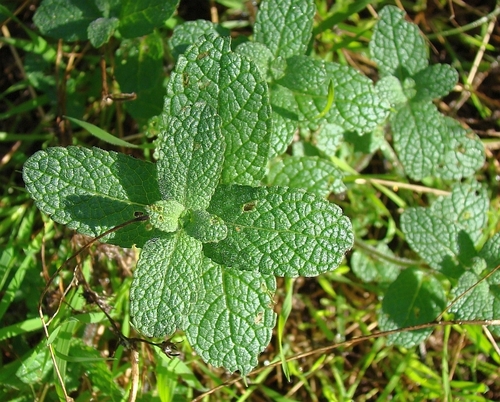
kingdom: Plantae
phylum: Tracheophyta
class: Magnoliopsida
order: Lamiales
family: Lamiaceae
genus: Mentha
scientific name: Mentha suaveolens
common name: Apple mint
